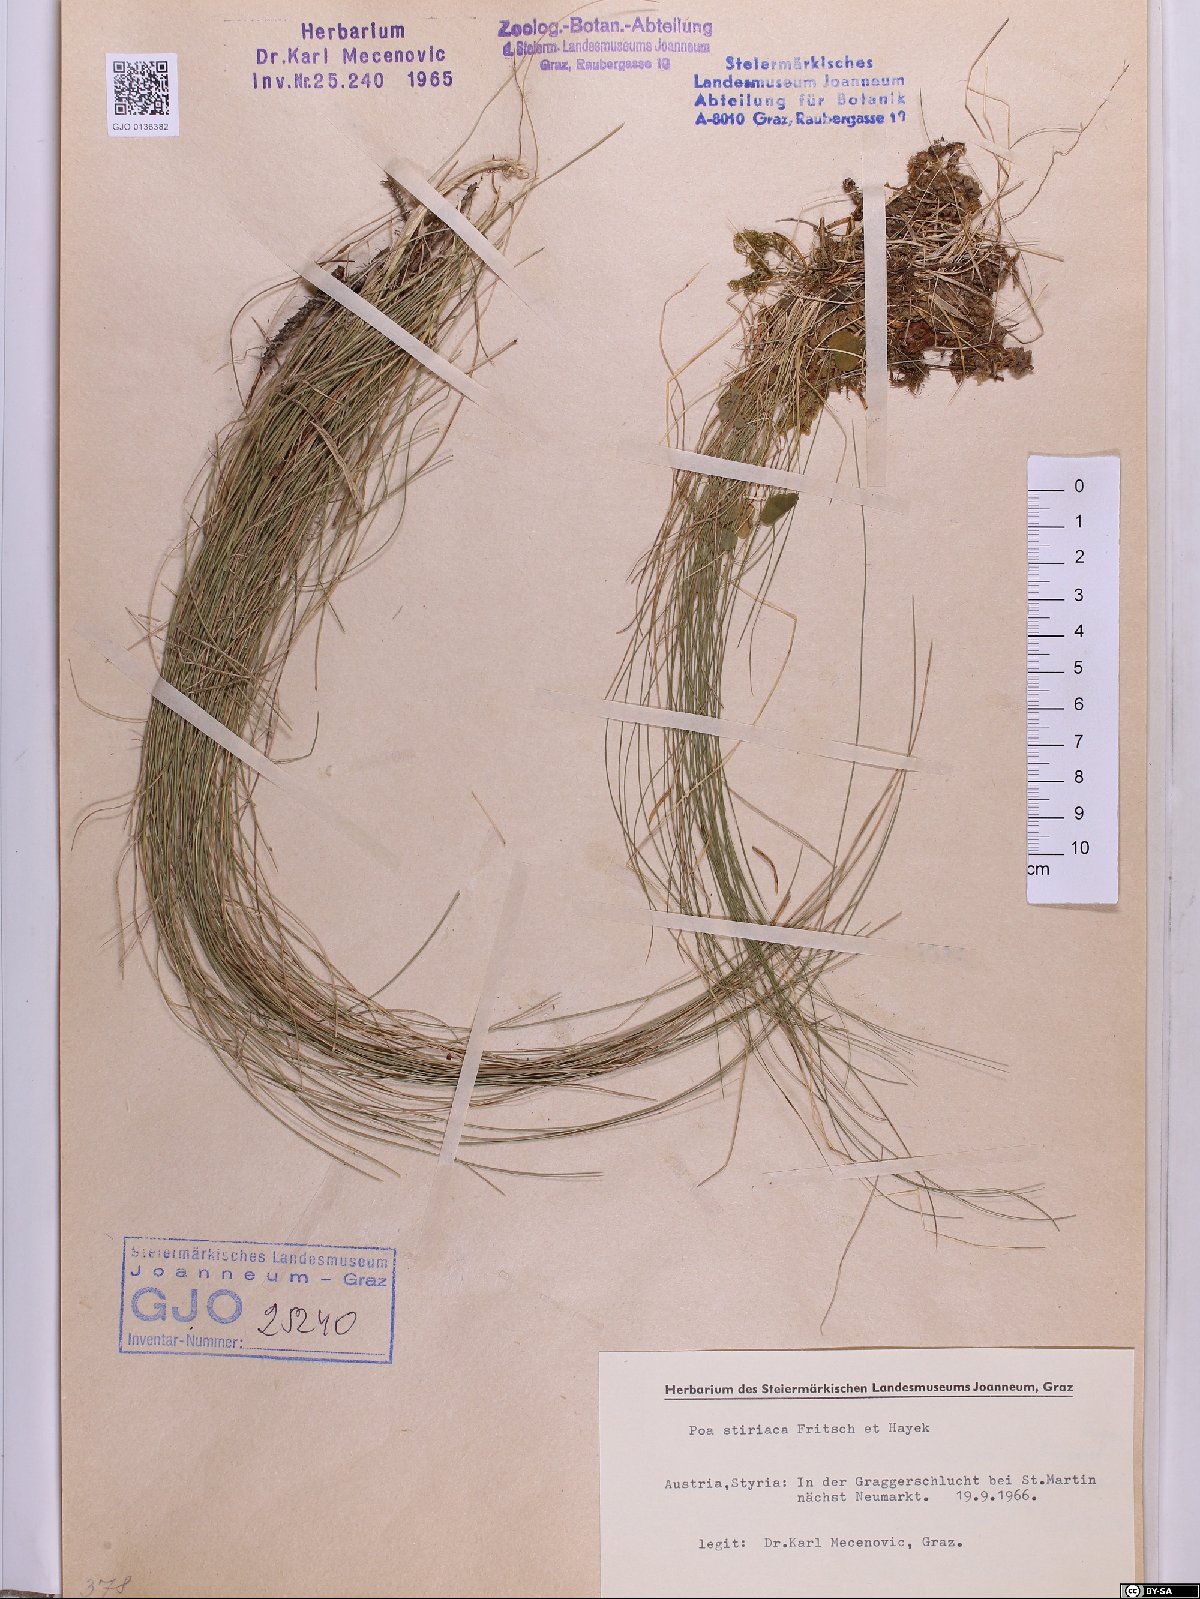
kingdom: Plantae
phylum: Tracheophyta
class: Liliopsida
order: Poales
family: Poaceae
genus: Poa
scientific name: Poa stiriaca
